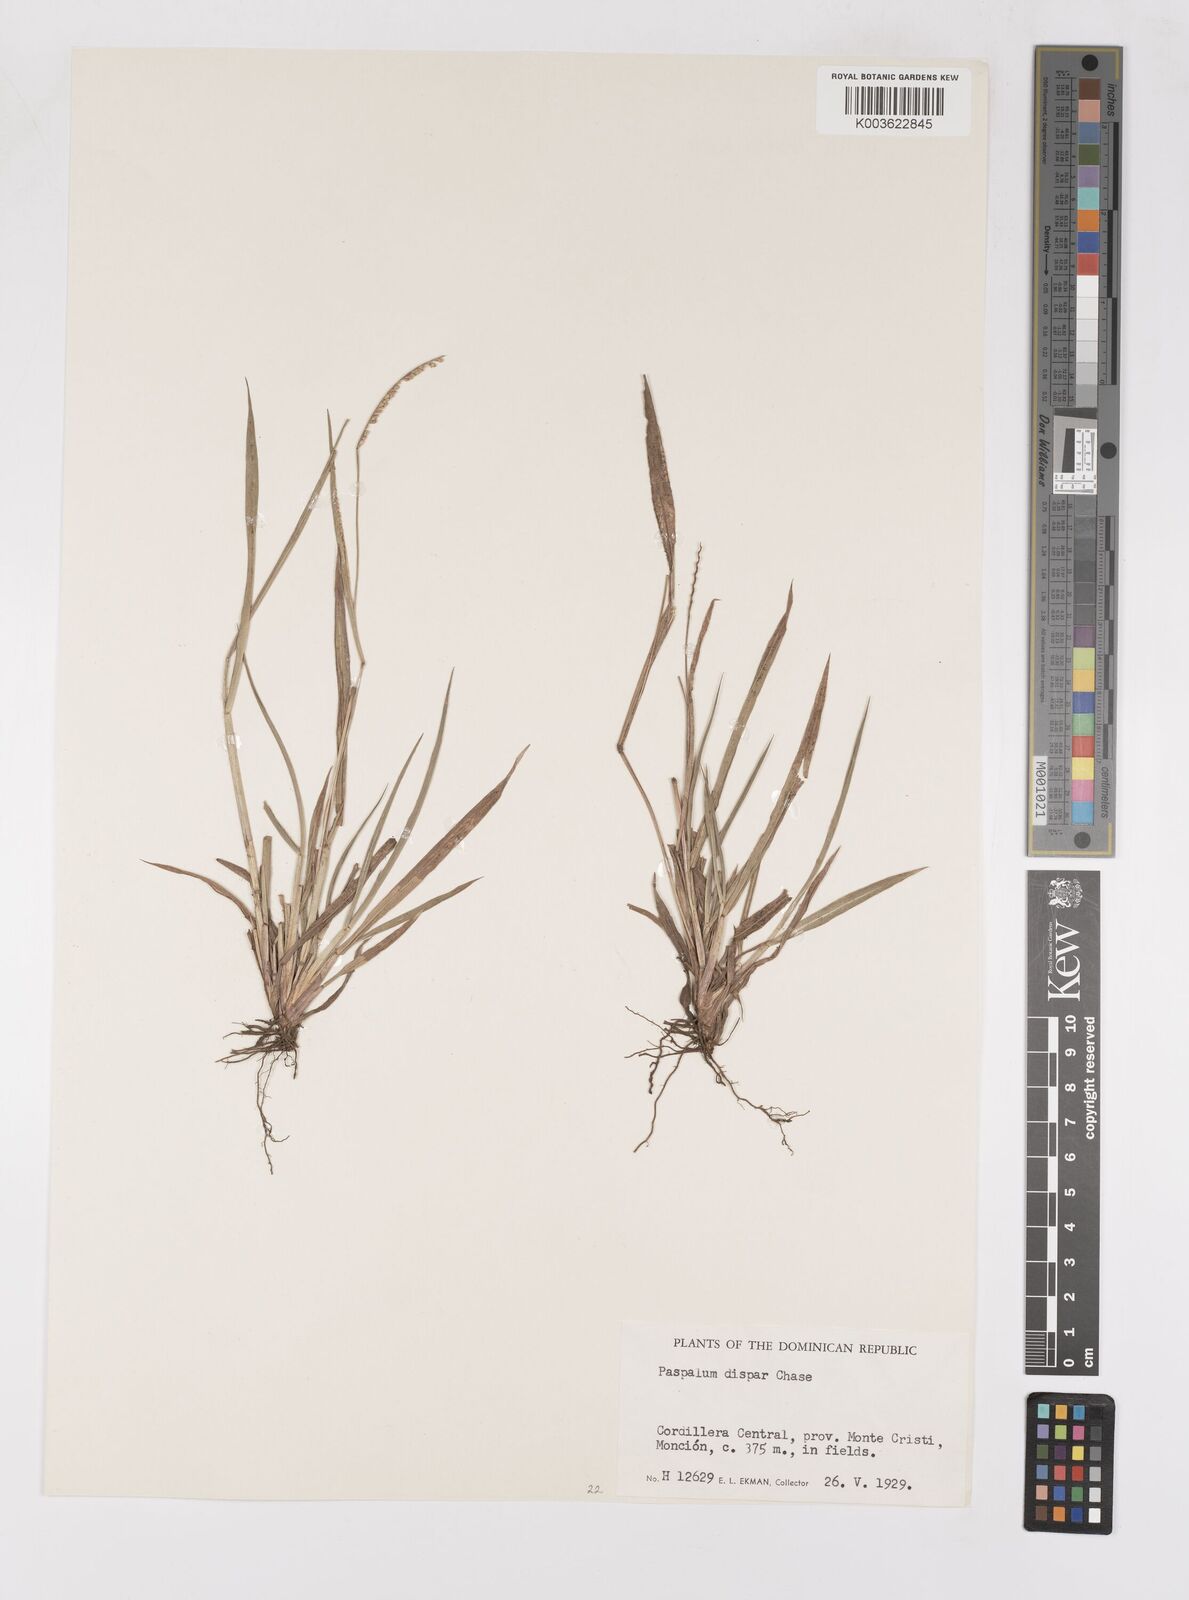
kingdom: Plantae
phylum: Tracheophyta
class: Liliopsida
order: Poales
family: Poaceae
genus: Paspalum
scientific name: Paspalum dispar
